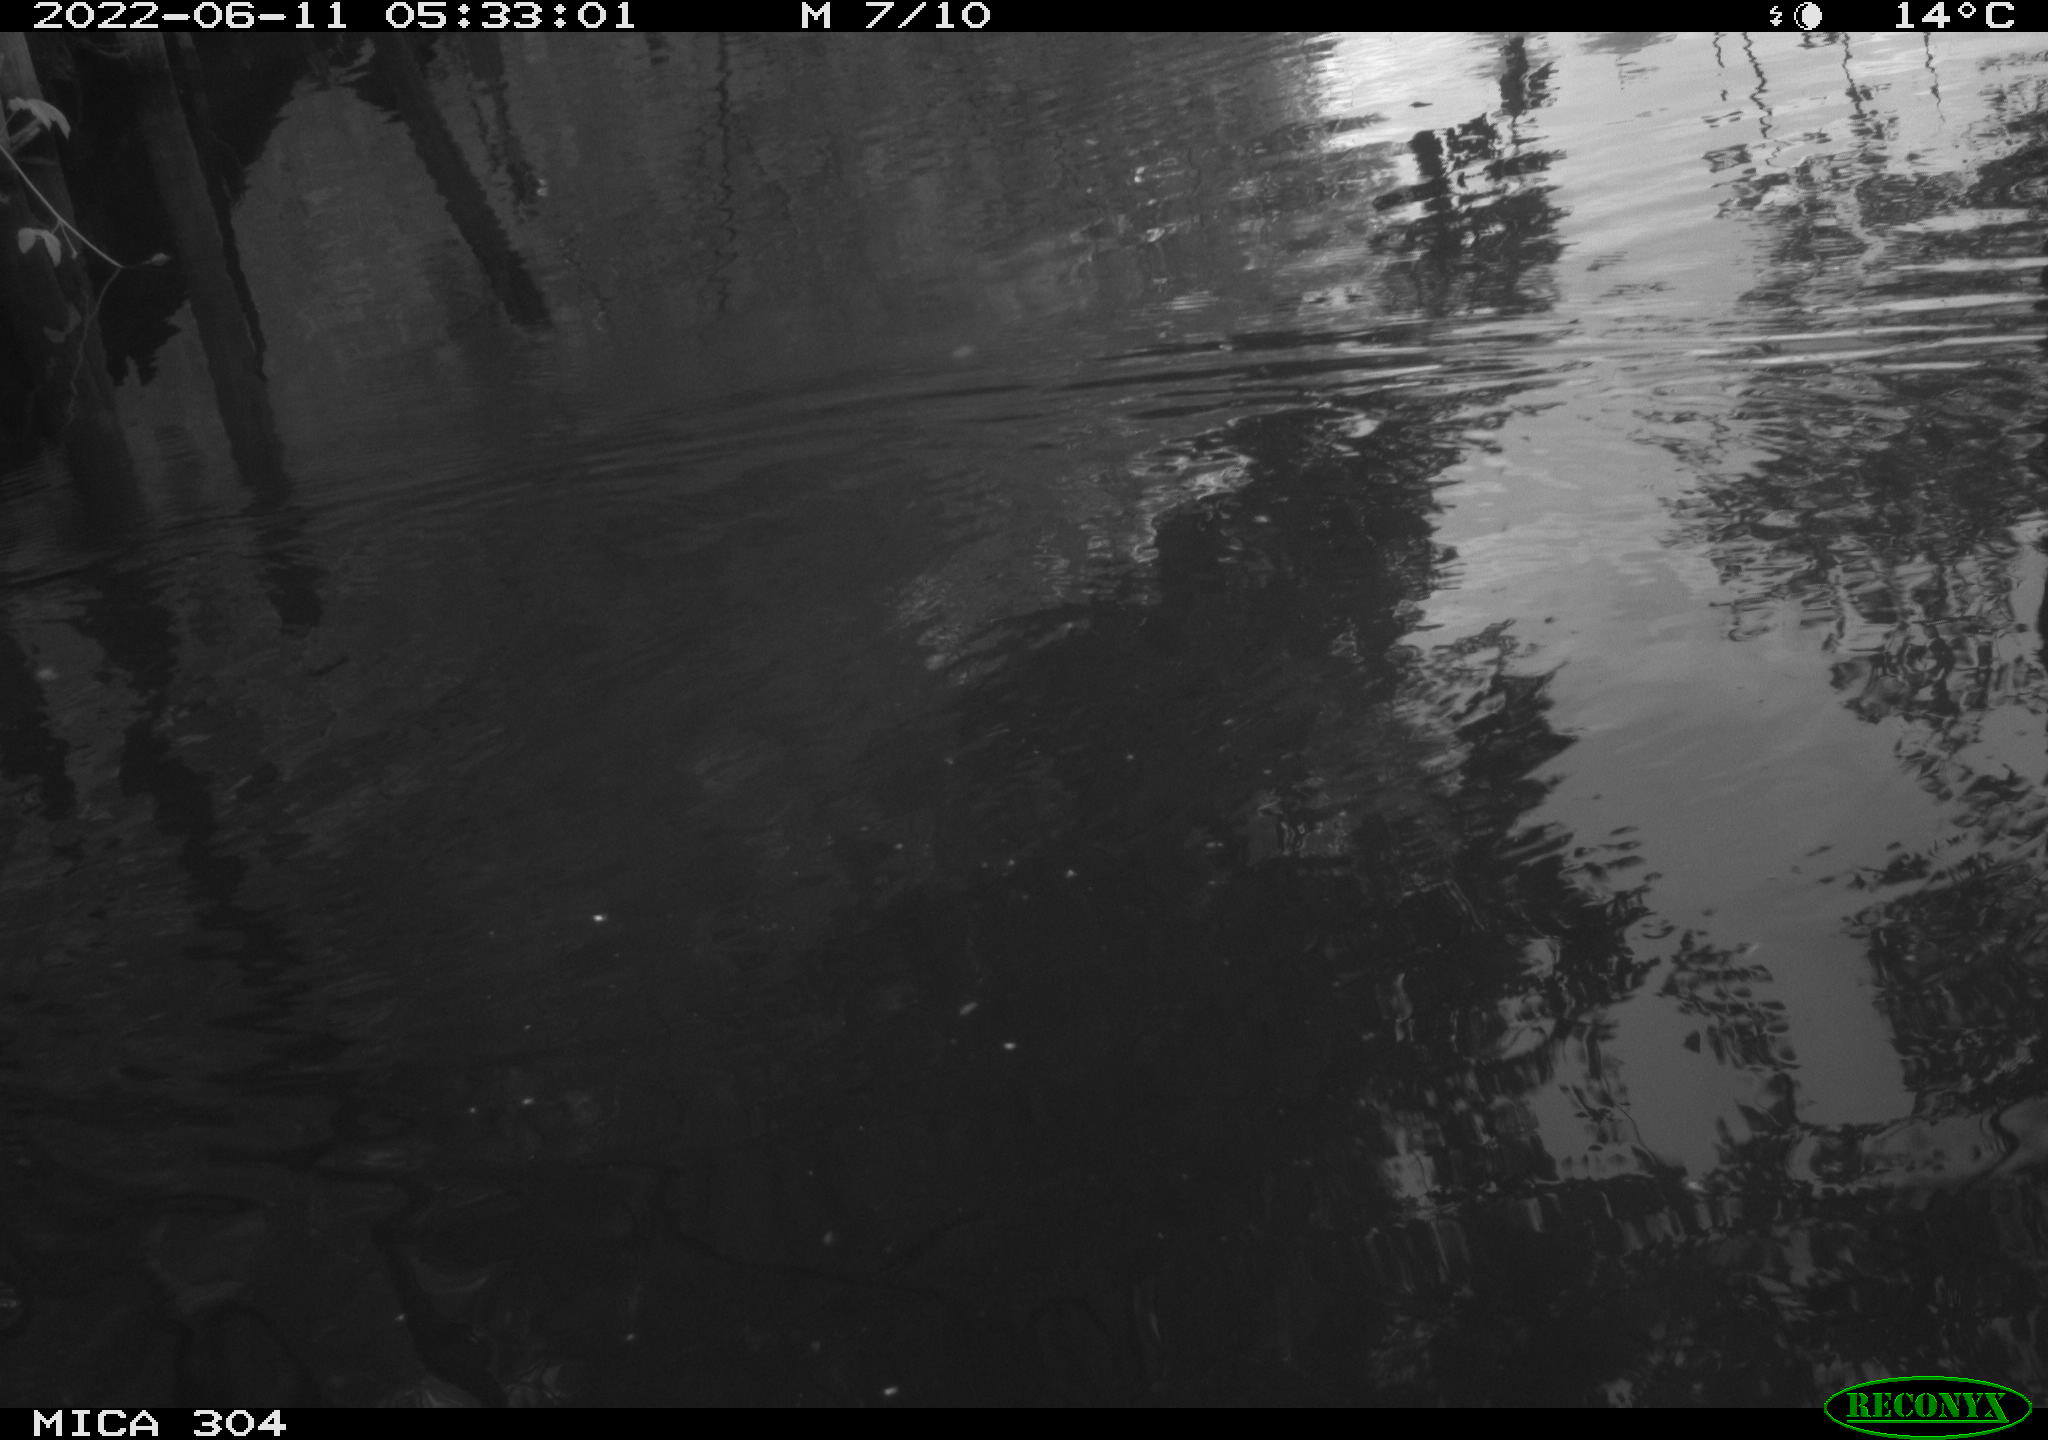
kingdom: Animalia
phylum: Chordata
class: Aves
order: Anseriformes
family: Anatidae
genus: Anas
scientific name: Anas platyrhynchos
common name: Mallard
